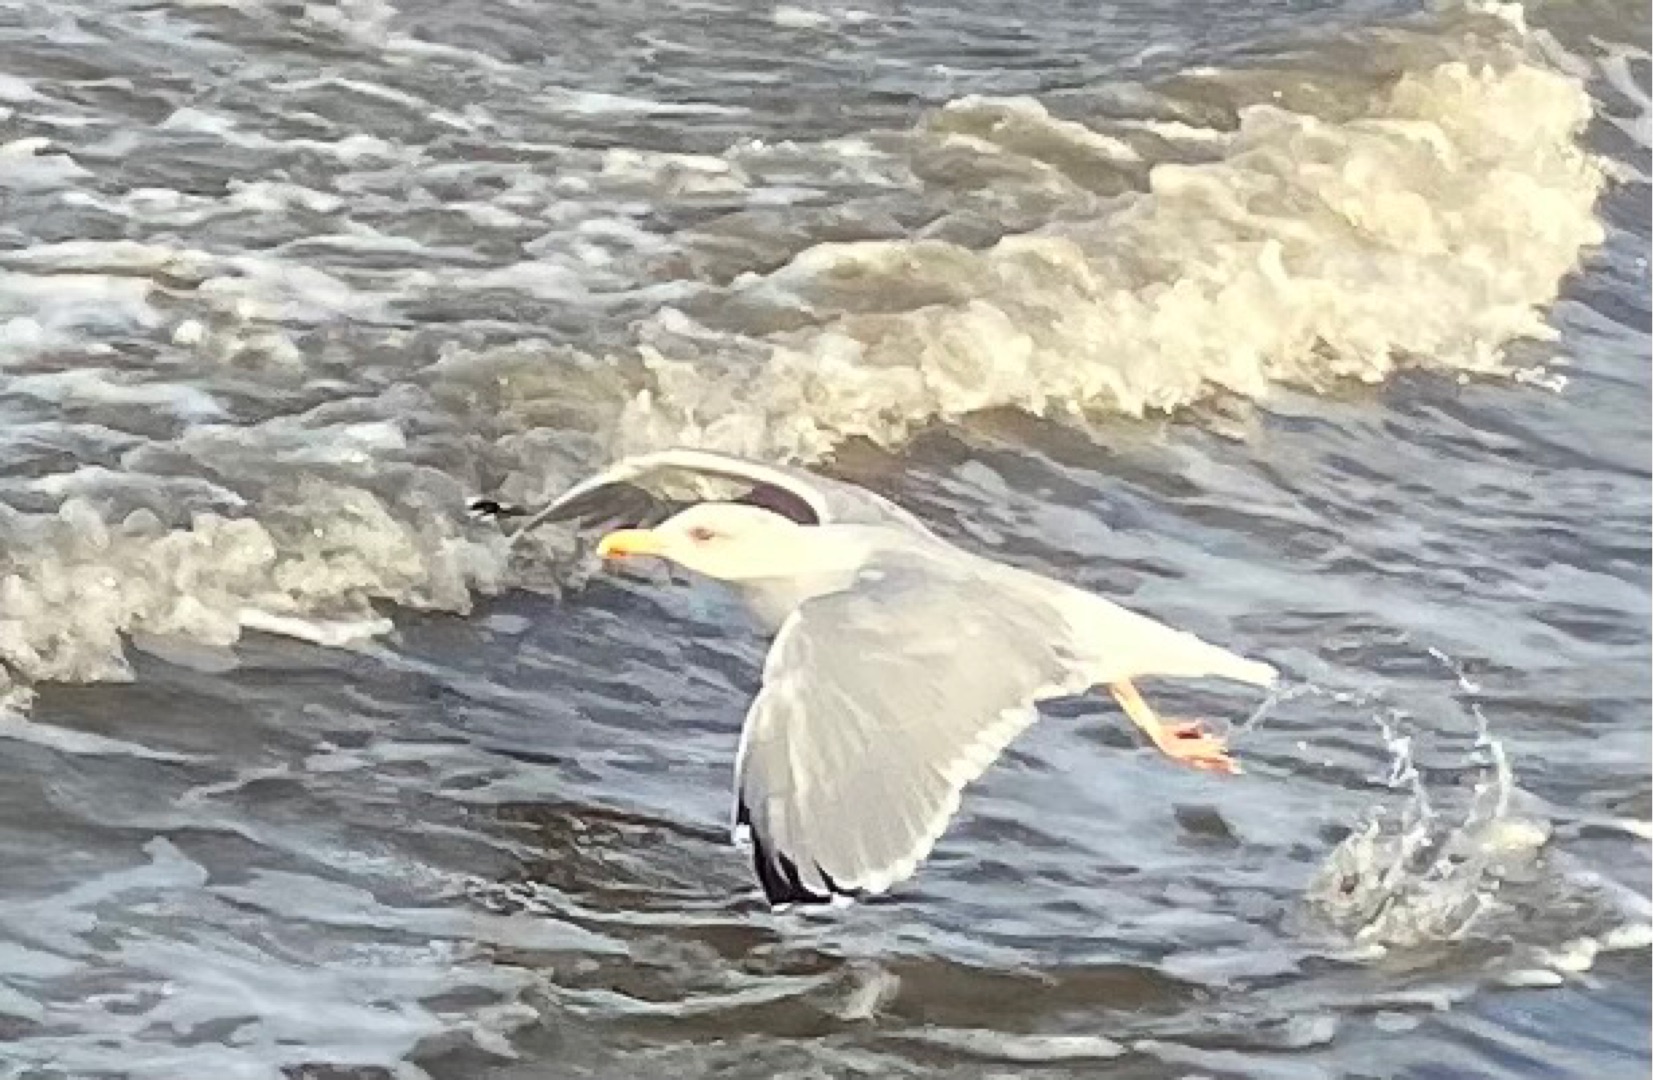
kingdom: Animalia
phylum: Chordata
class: Aves
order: Charadriiformes
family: Laridae
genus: Larus
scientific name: Larus argentatus
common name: Sølvmåge
